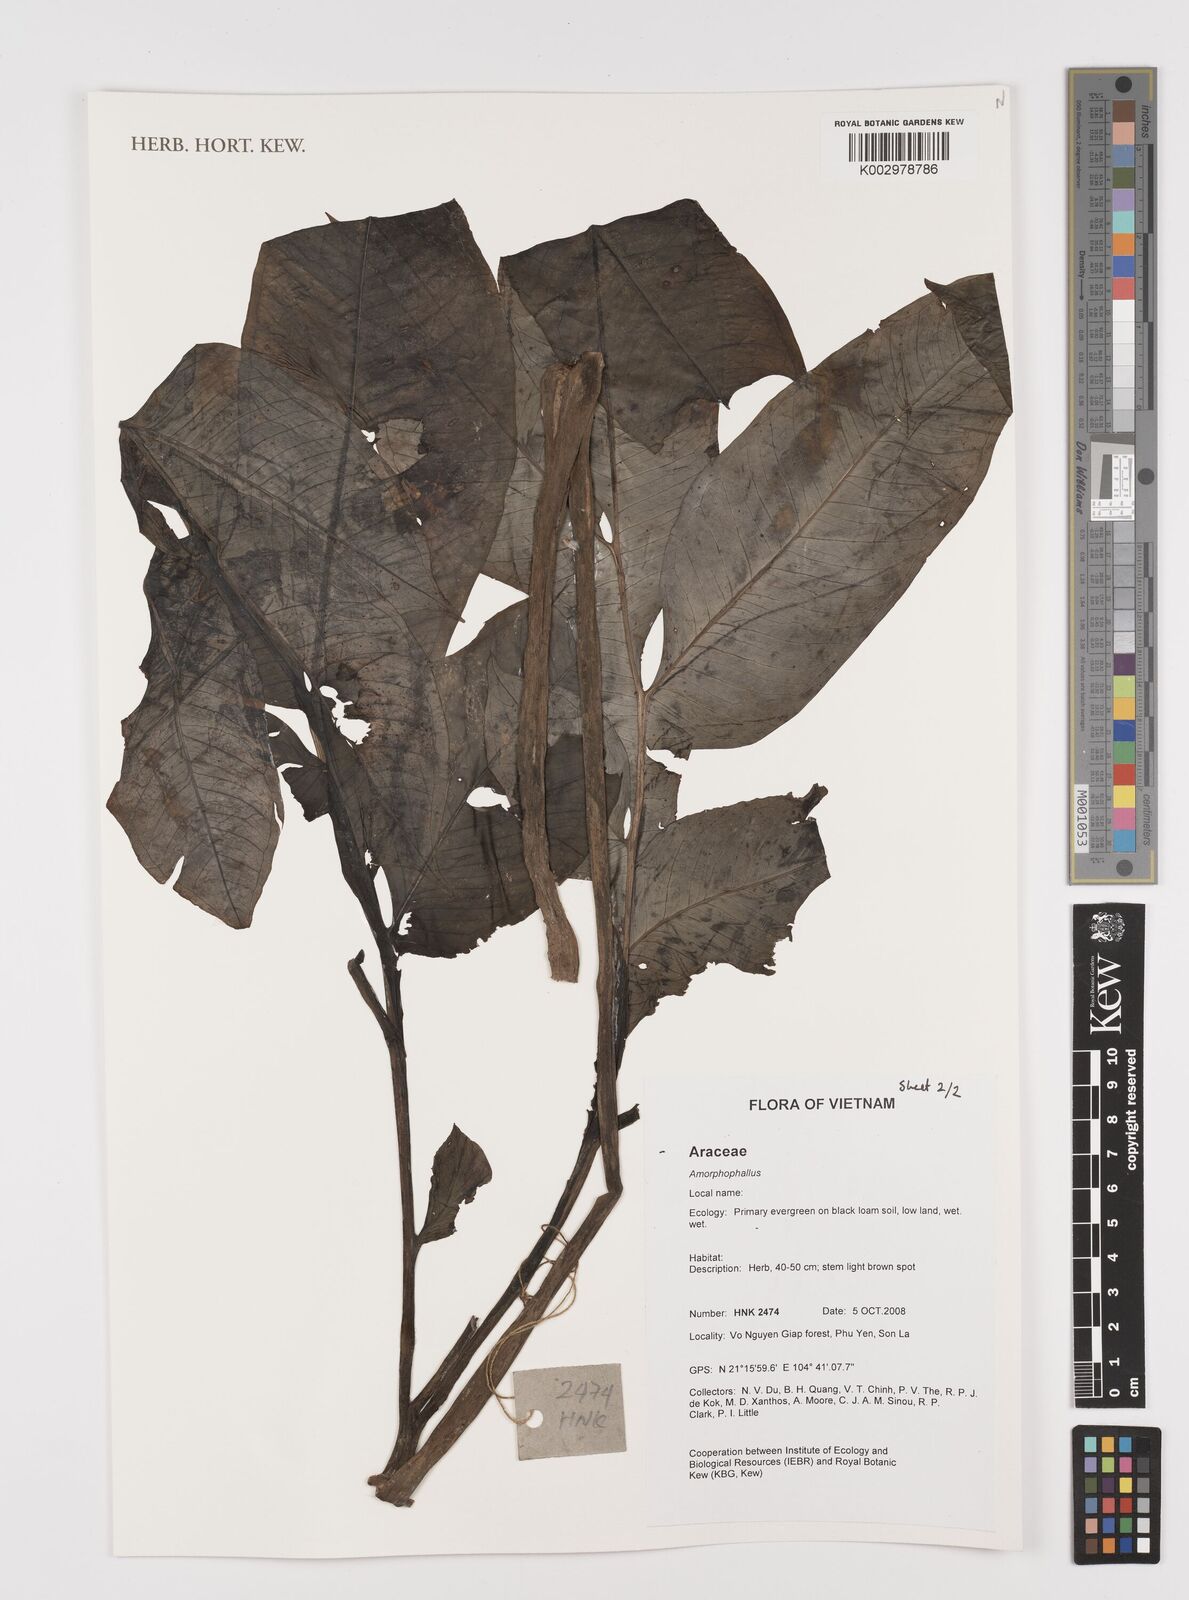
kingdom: Plantae
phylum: Tracheophyta
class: Liliopsida
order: Alismatales
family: Araceae
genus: Amorphophallus
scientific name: Amorphophallus
